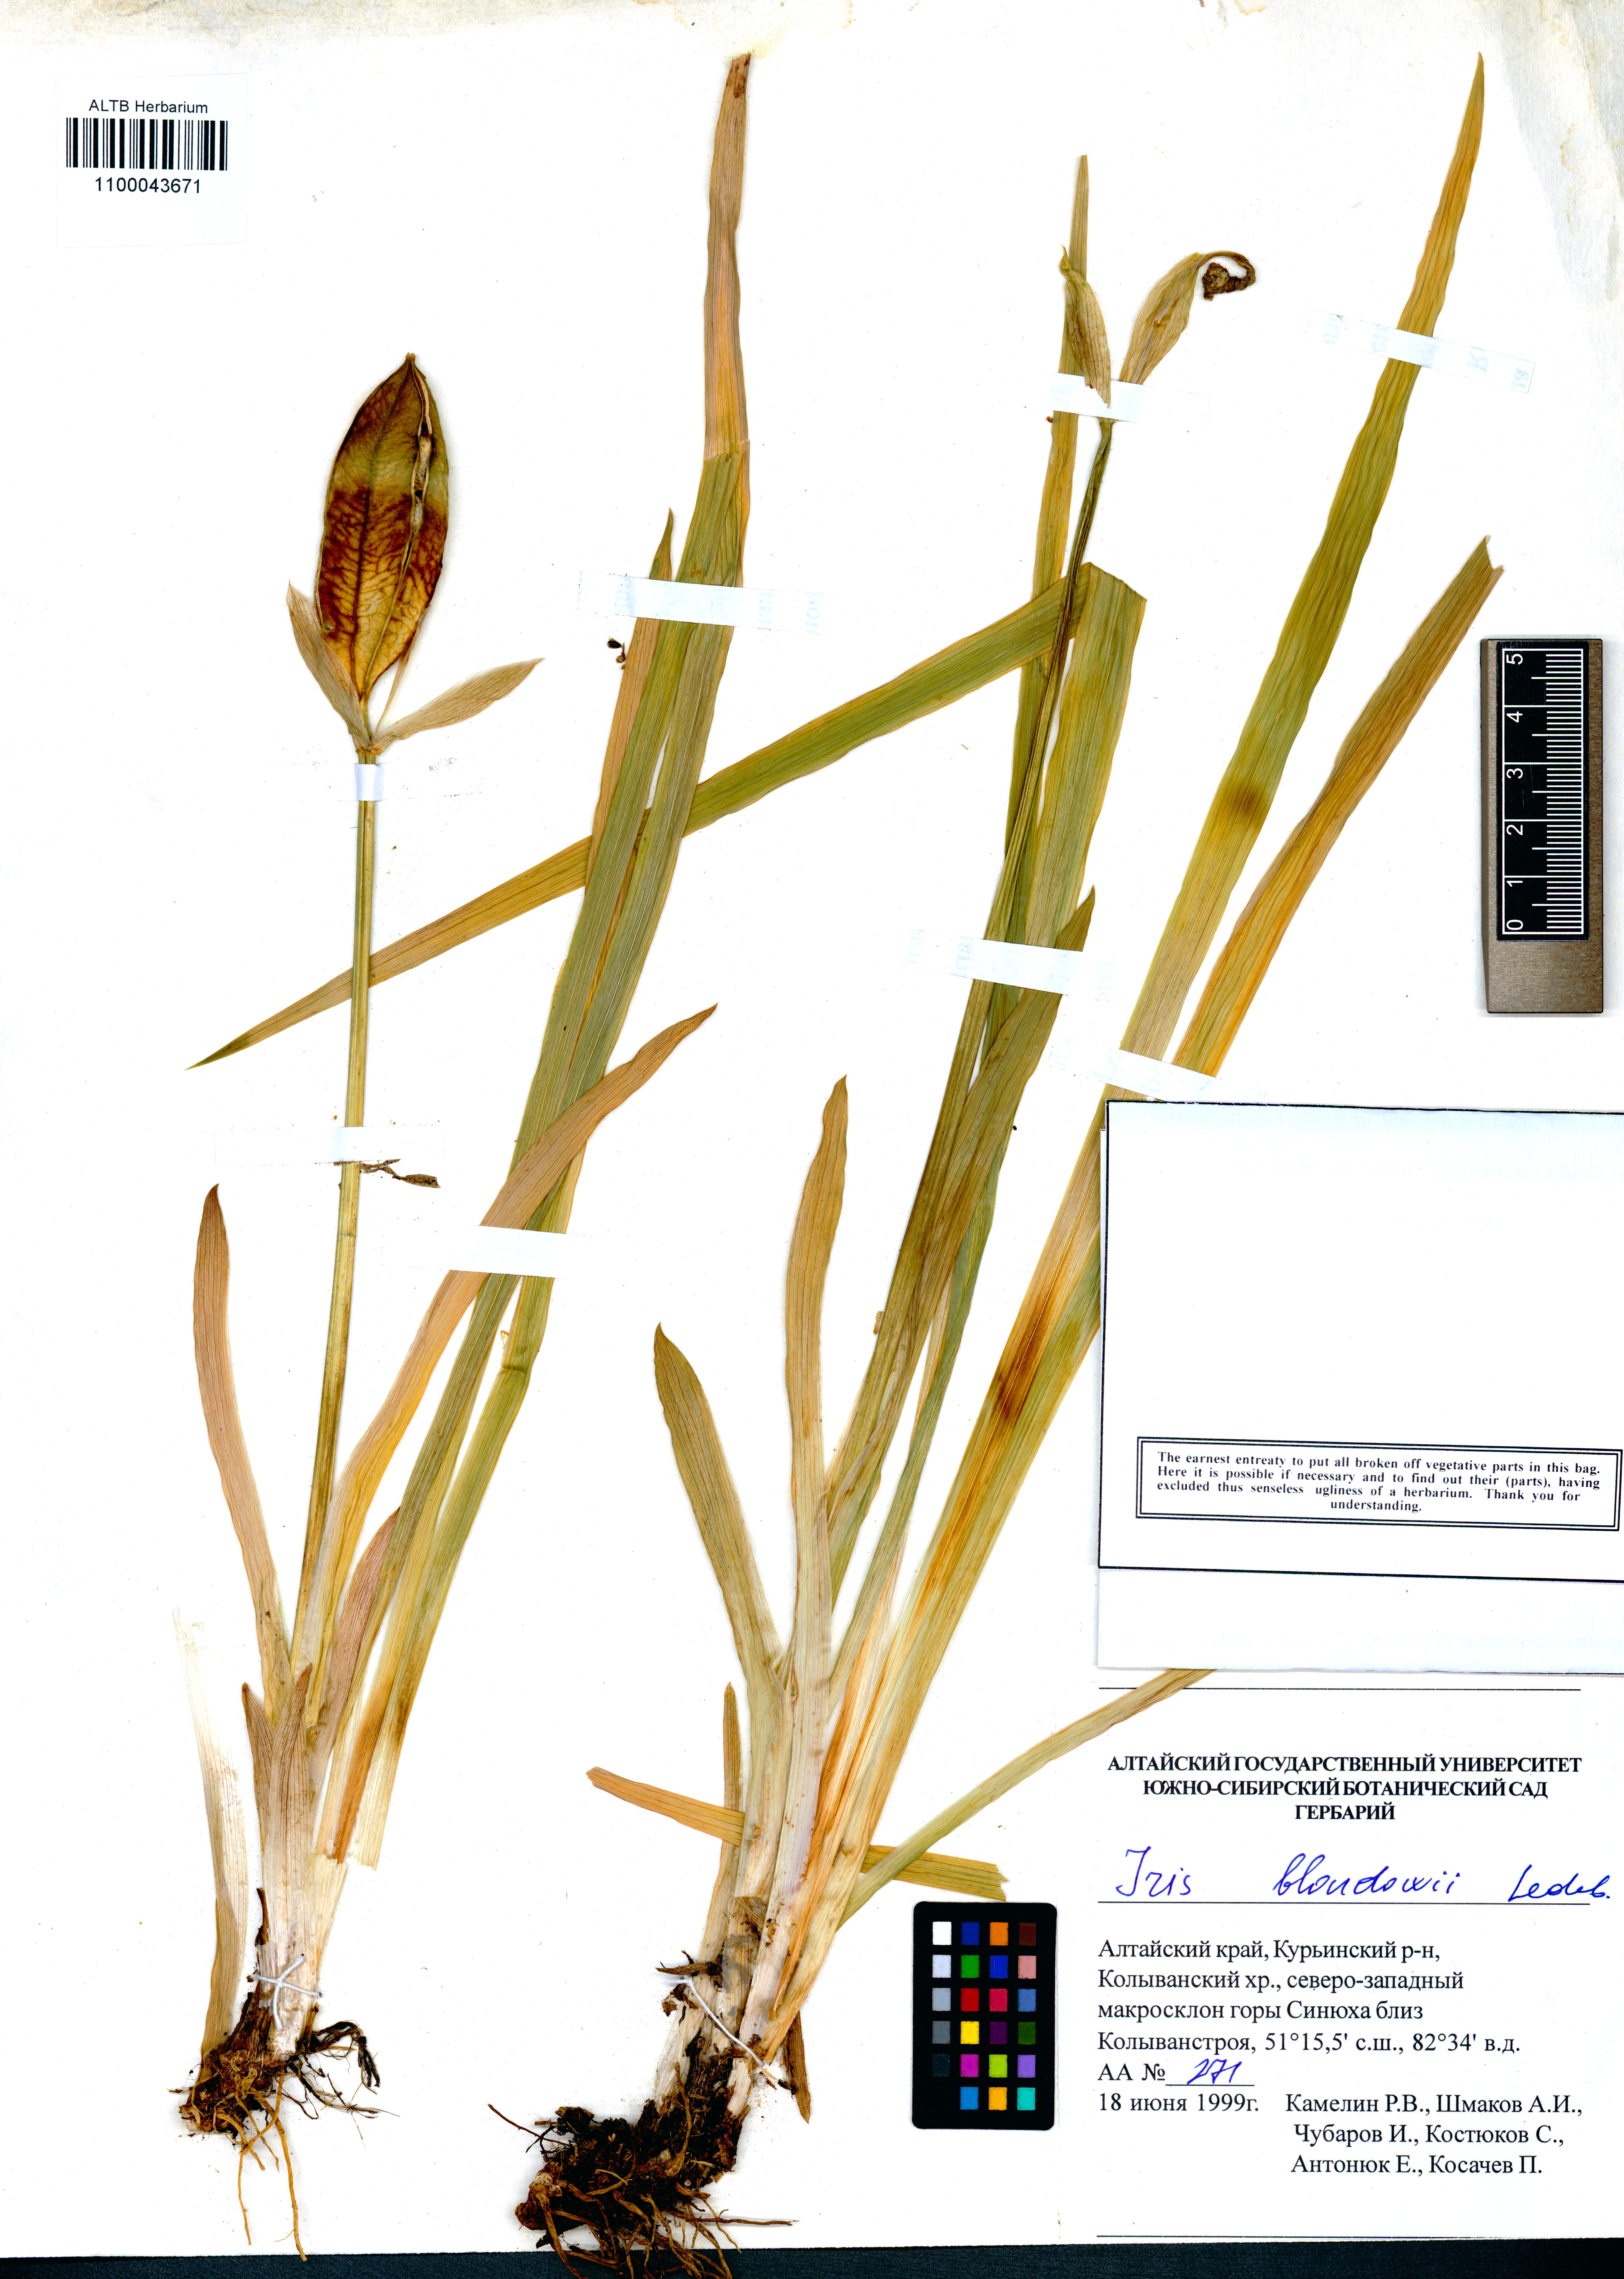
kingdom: Plantae
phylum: Tracheophyta
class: Liliopsida
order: Asparagales
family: Iridaceae
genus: Iris
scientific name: Iris bloudowii
